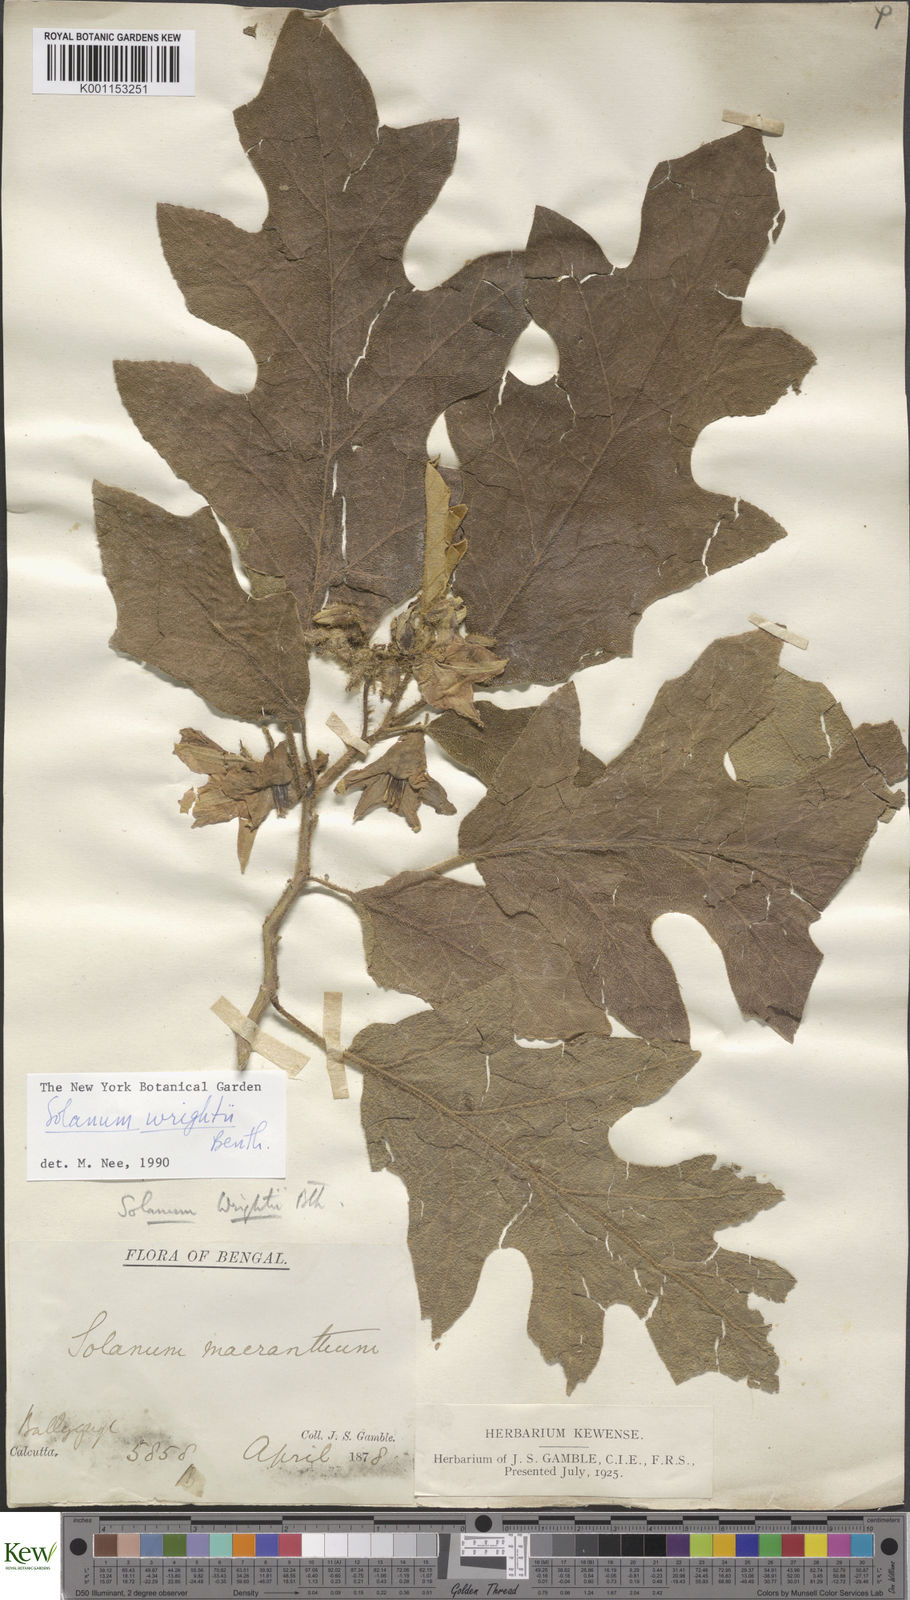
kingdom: Plantae
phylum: Tracheophyta
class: Magnoliopsida
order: Solanales
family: Solanaceae
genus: Solanum
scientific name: Solanum wrightii
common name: Brazilian potato-tree
